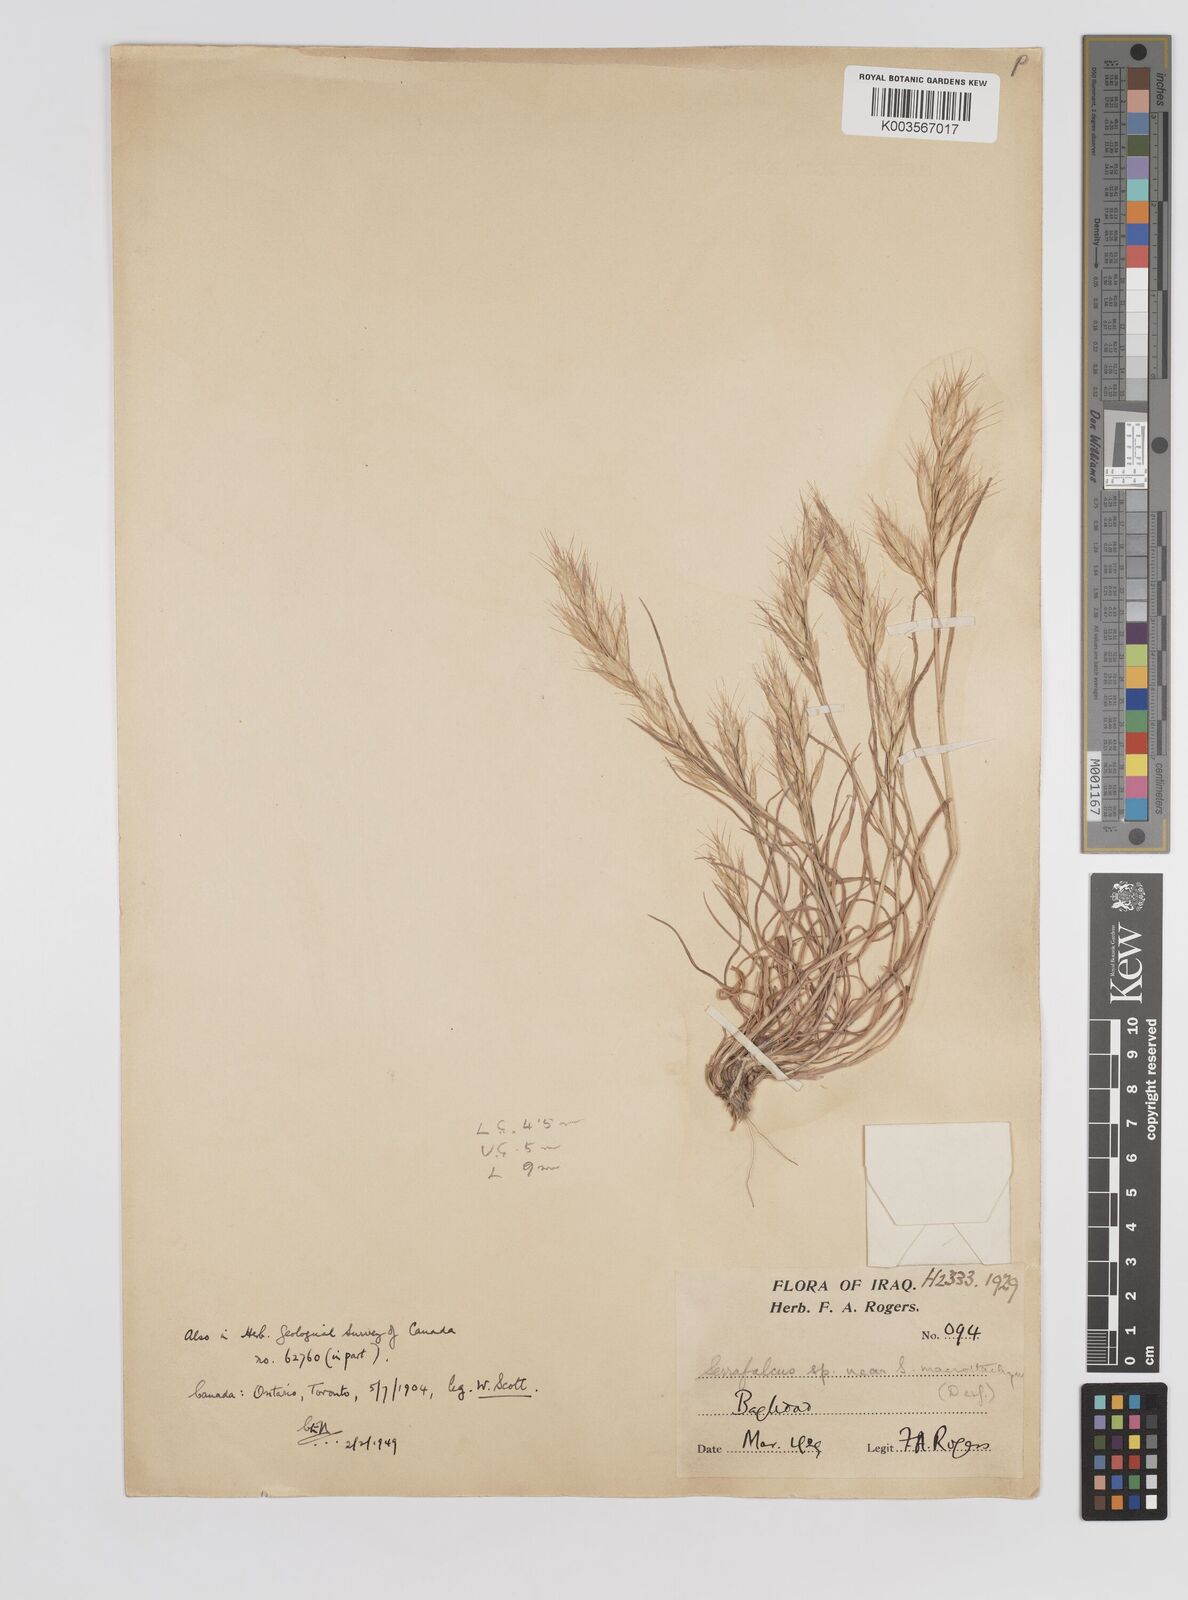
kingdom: Plantae
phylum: Tracheophyta
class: Liliopsida
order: Poales
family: Poaceae
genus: Bromus
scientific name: Bromus danthoniae
